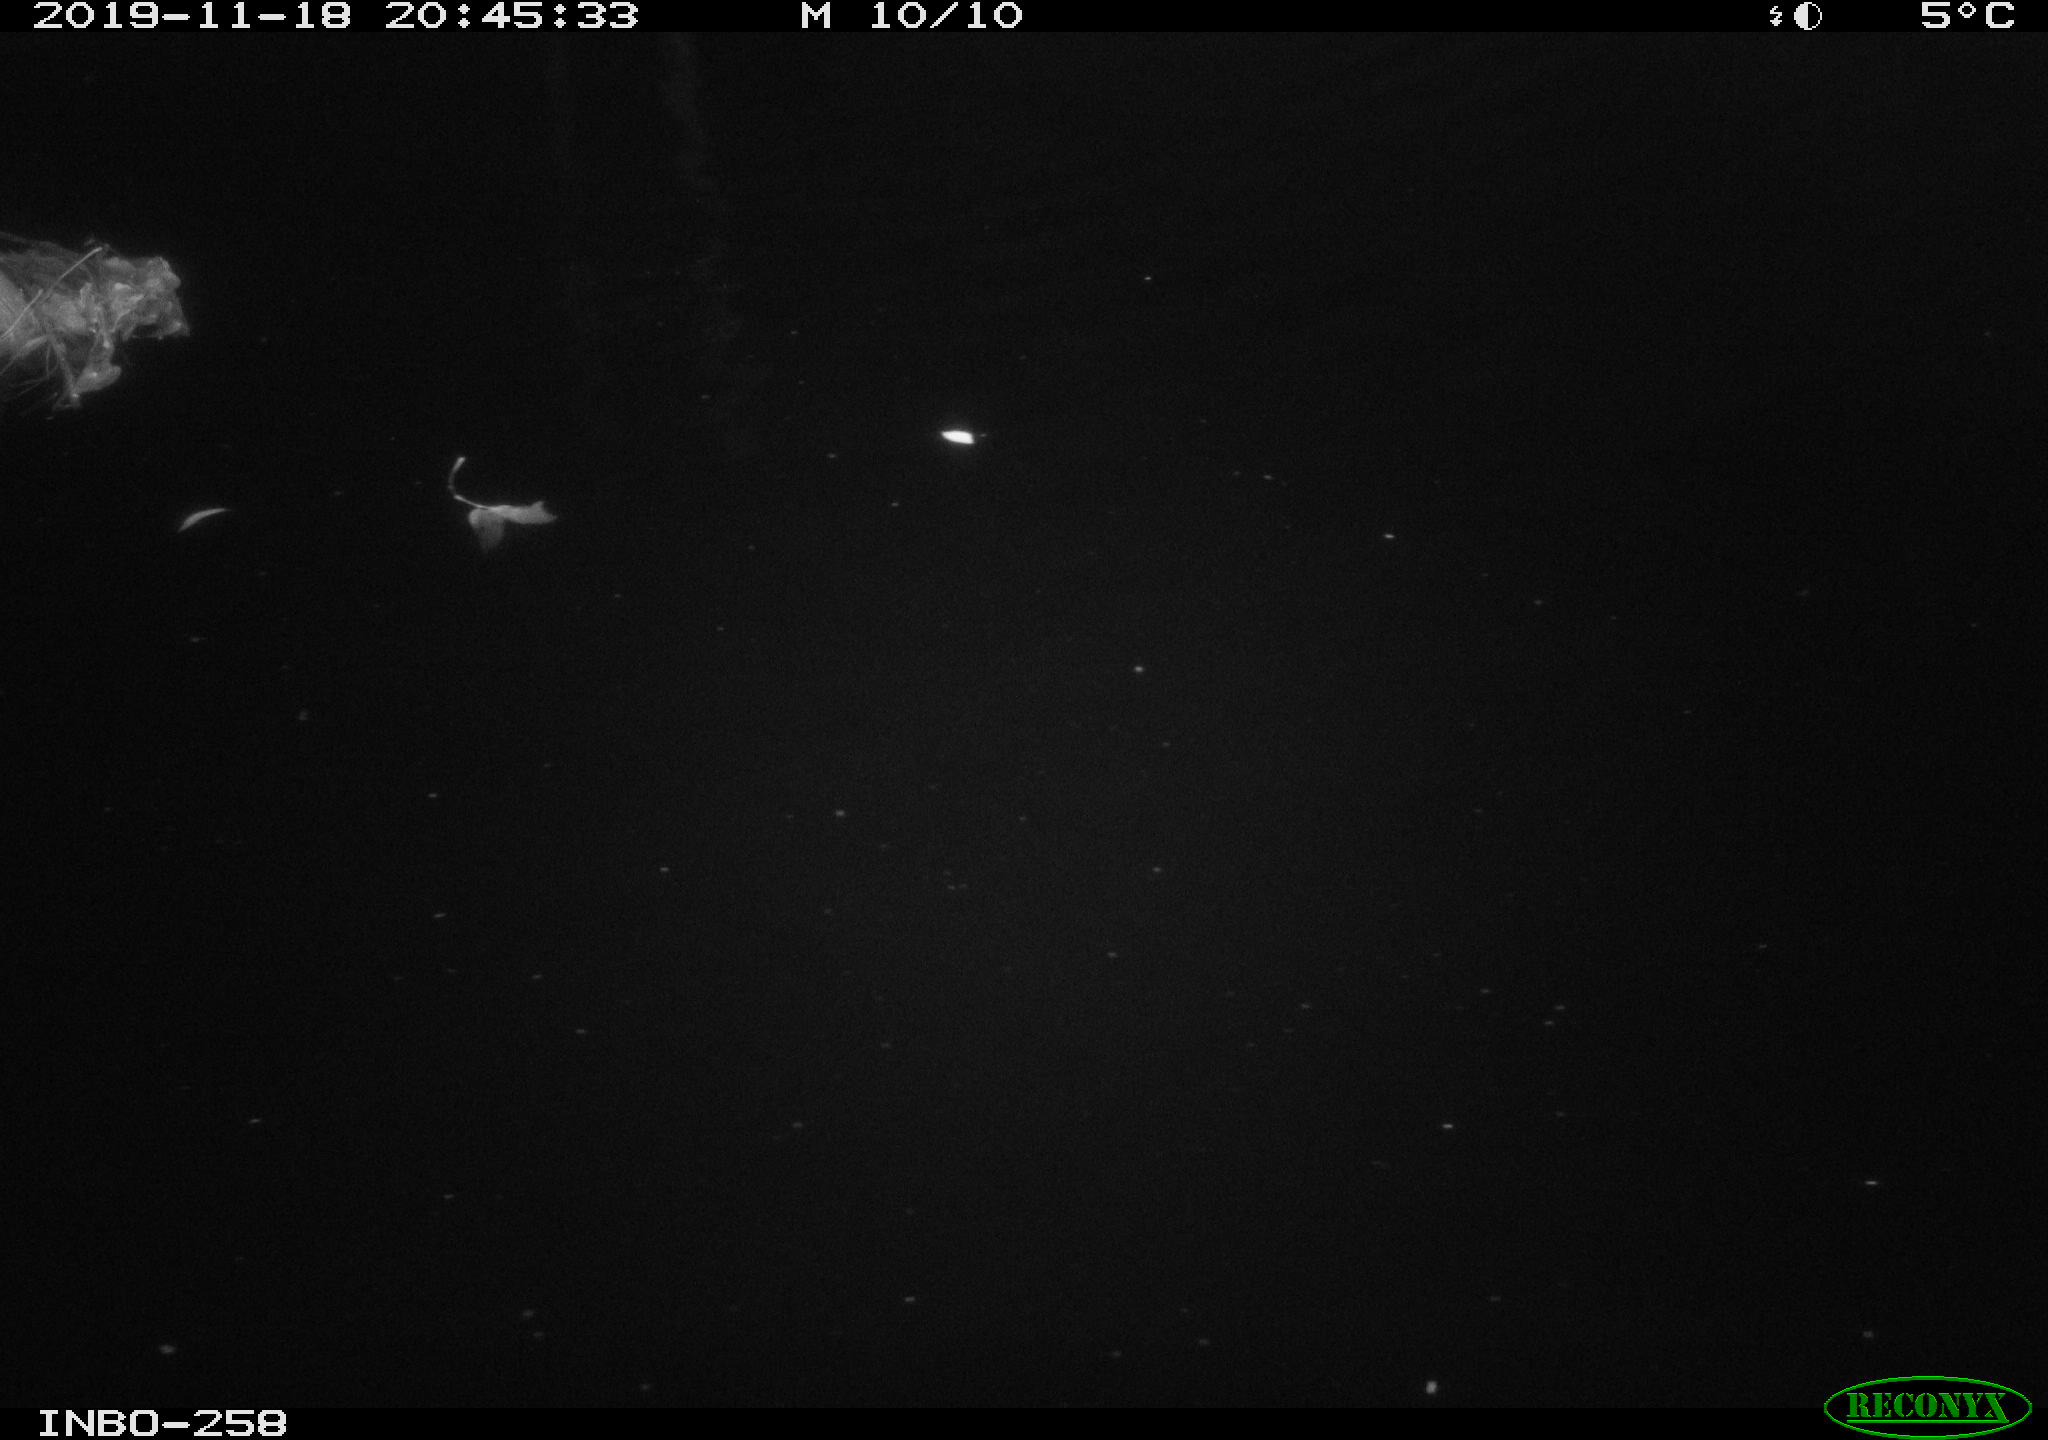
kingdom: Animalia
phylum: Chordata
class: Mammalia
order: Rodentia
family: Muridae
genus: Rattus
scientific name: Rattus norvegicus
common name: Brown rat
